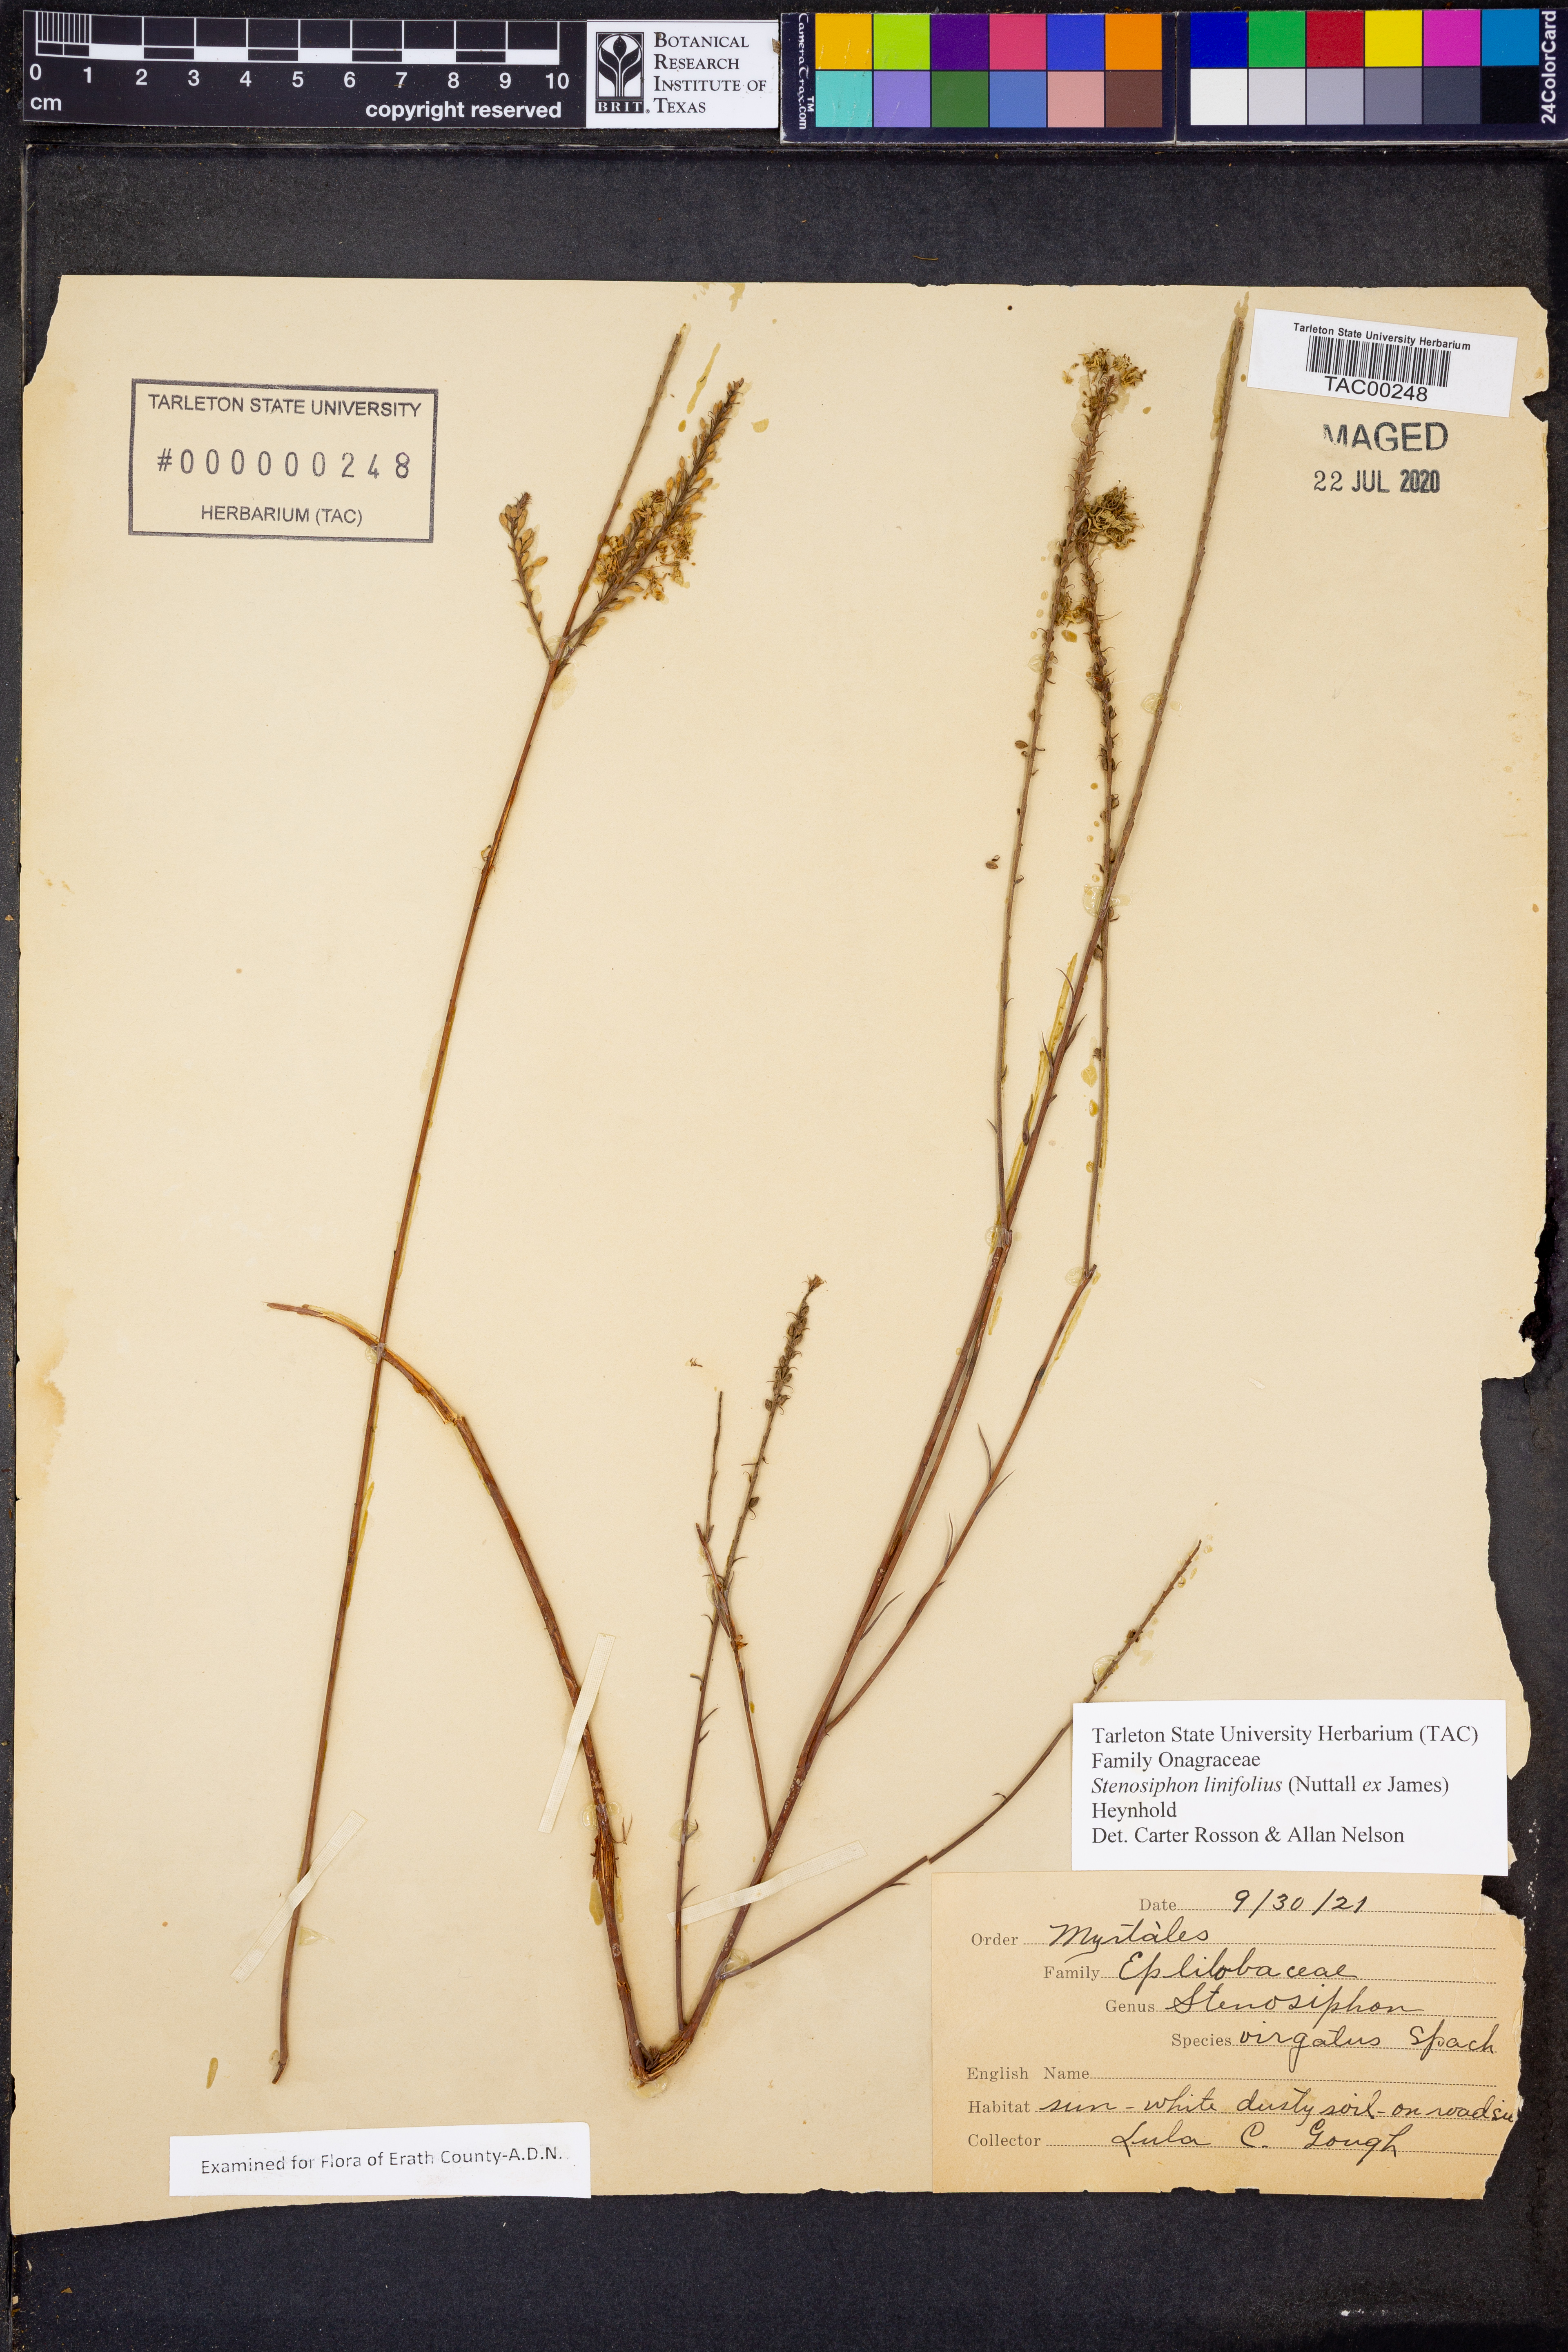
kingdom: Plantae
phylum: Tracheophyta
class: Magnoliopsida
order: Myrtales
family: Onagraceae
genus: Oenothera
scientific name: Oenothera glaucifolia
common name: False gaura
